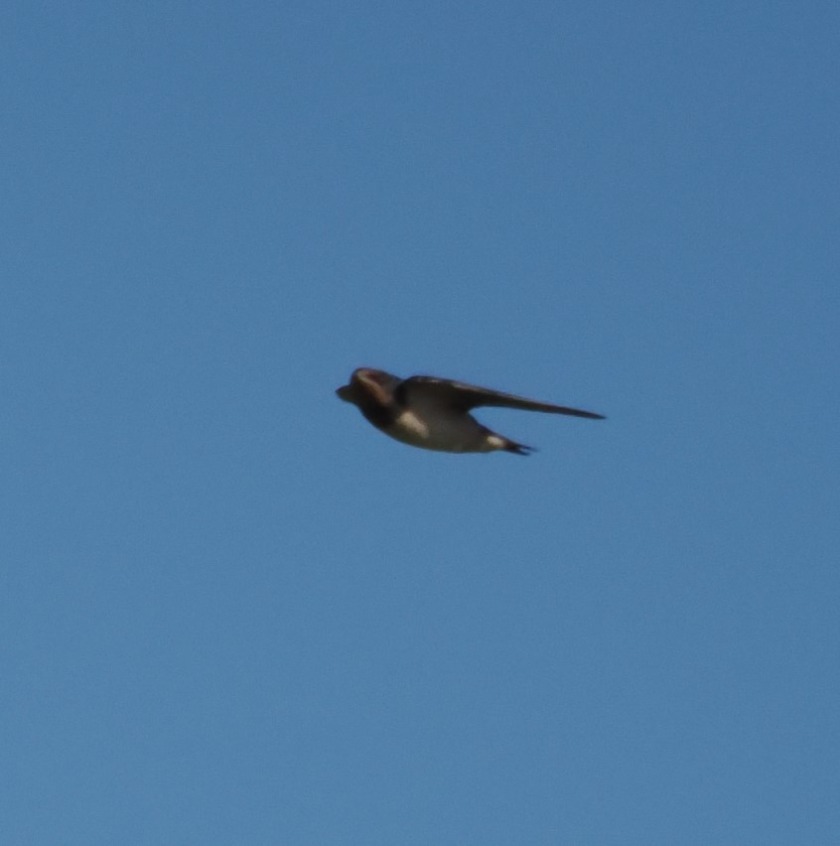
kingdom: Animalia
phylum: Chordata
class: Aves
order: Passeriformes
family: Hirundinidae
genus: Hirundo
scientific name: Hirundo rustica
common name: Landsvale
